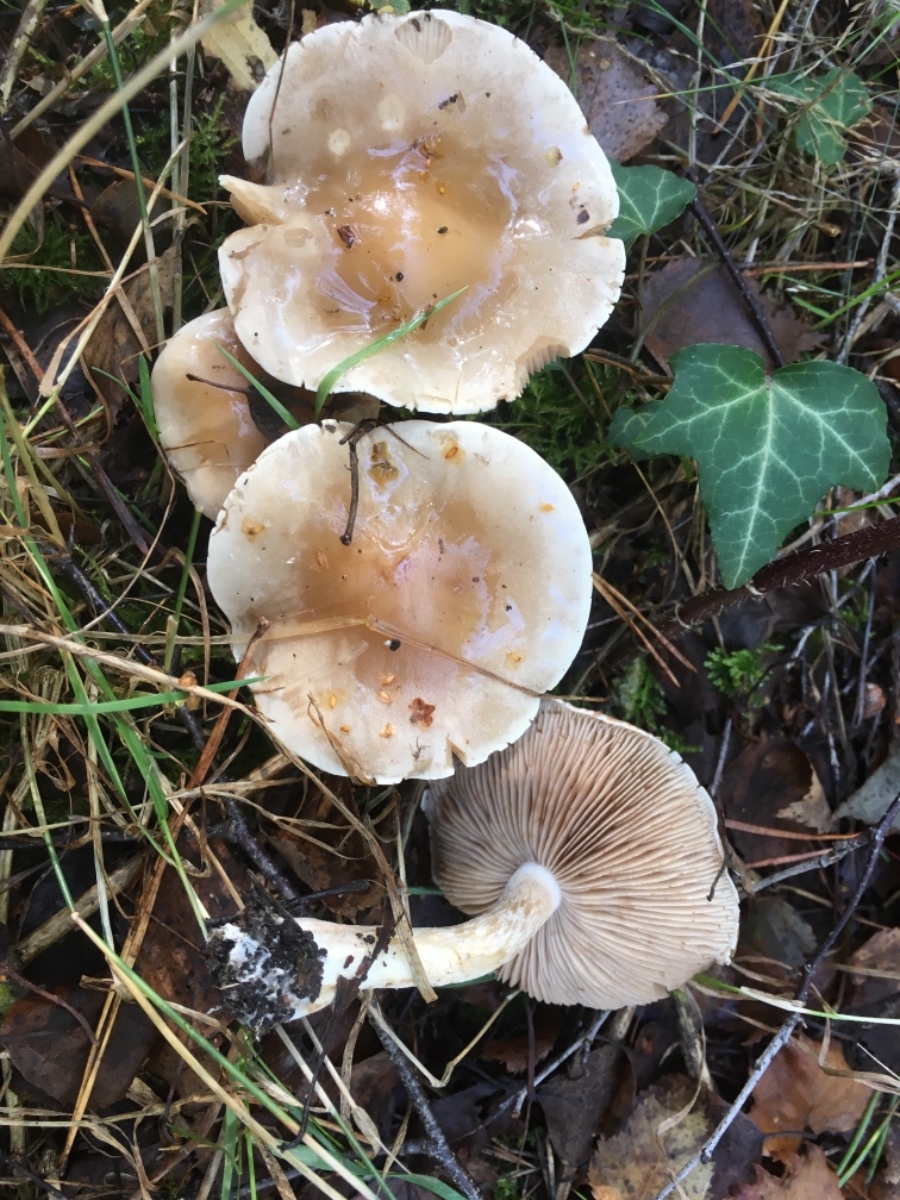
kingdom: Fungi
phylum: Basidiomycota
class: Agaricomycetes
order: Agaricales
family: Hymenogastraceae
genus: Hebeloma
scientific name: Hebeloma
